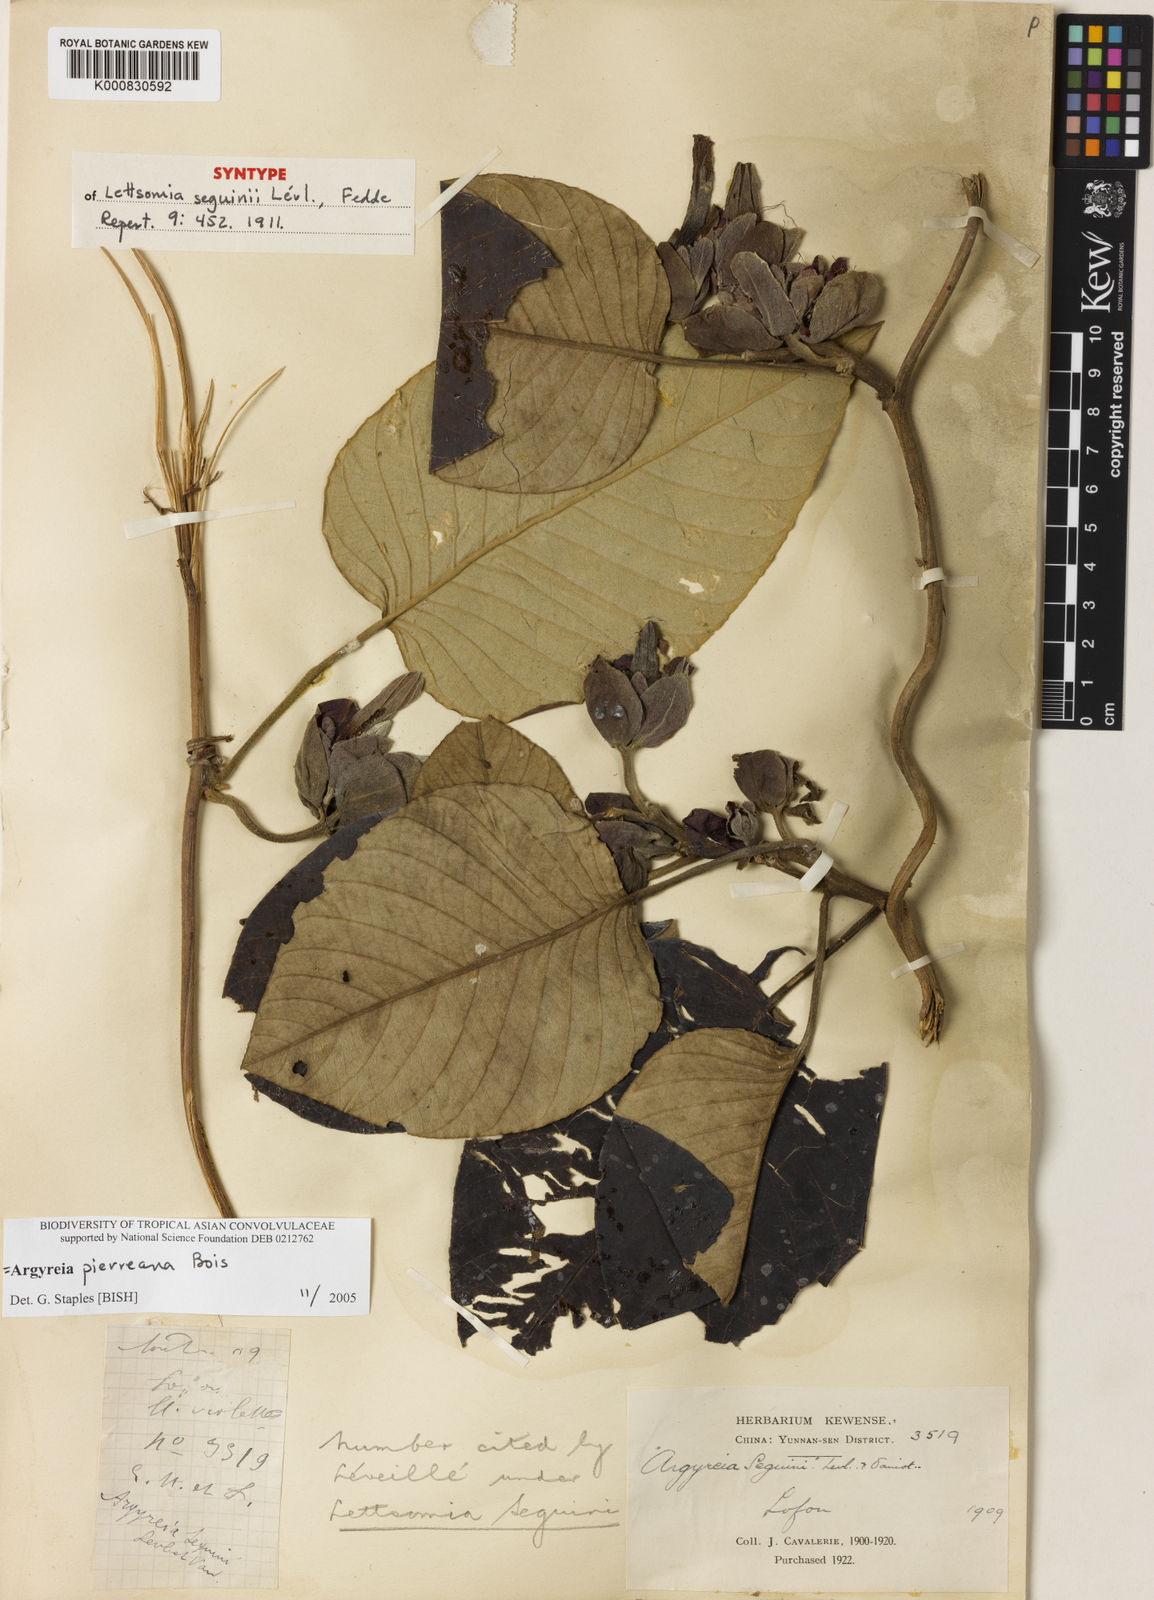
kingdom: Plantae
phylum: Tracheophyta
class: Magnoliopsida
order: Solanales
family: Convolvulaceae
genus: Argyreia
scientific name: Argyreia pierreana
